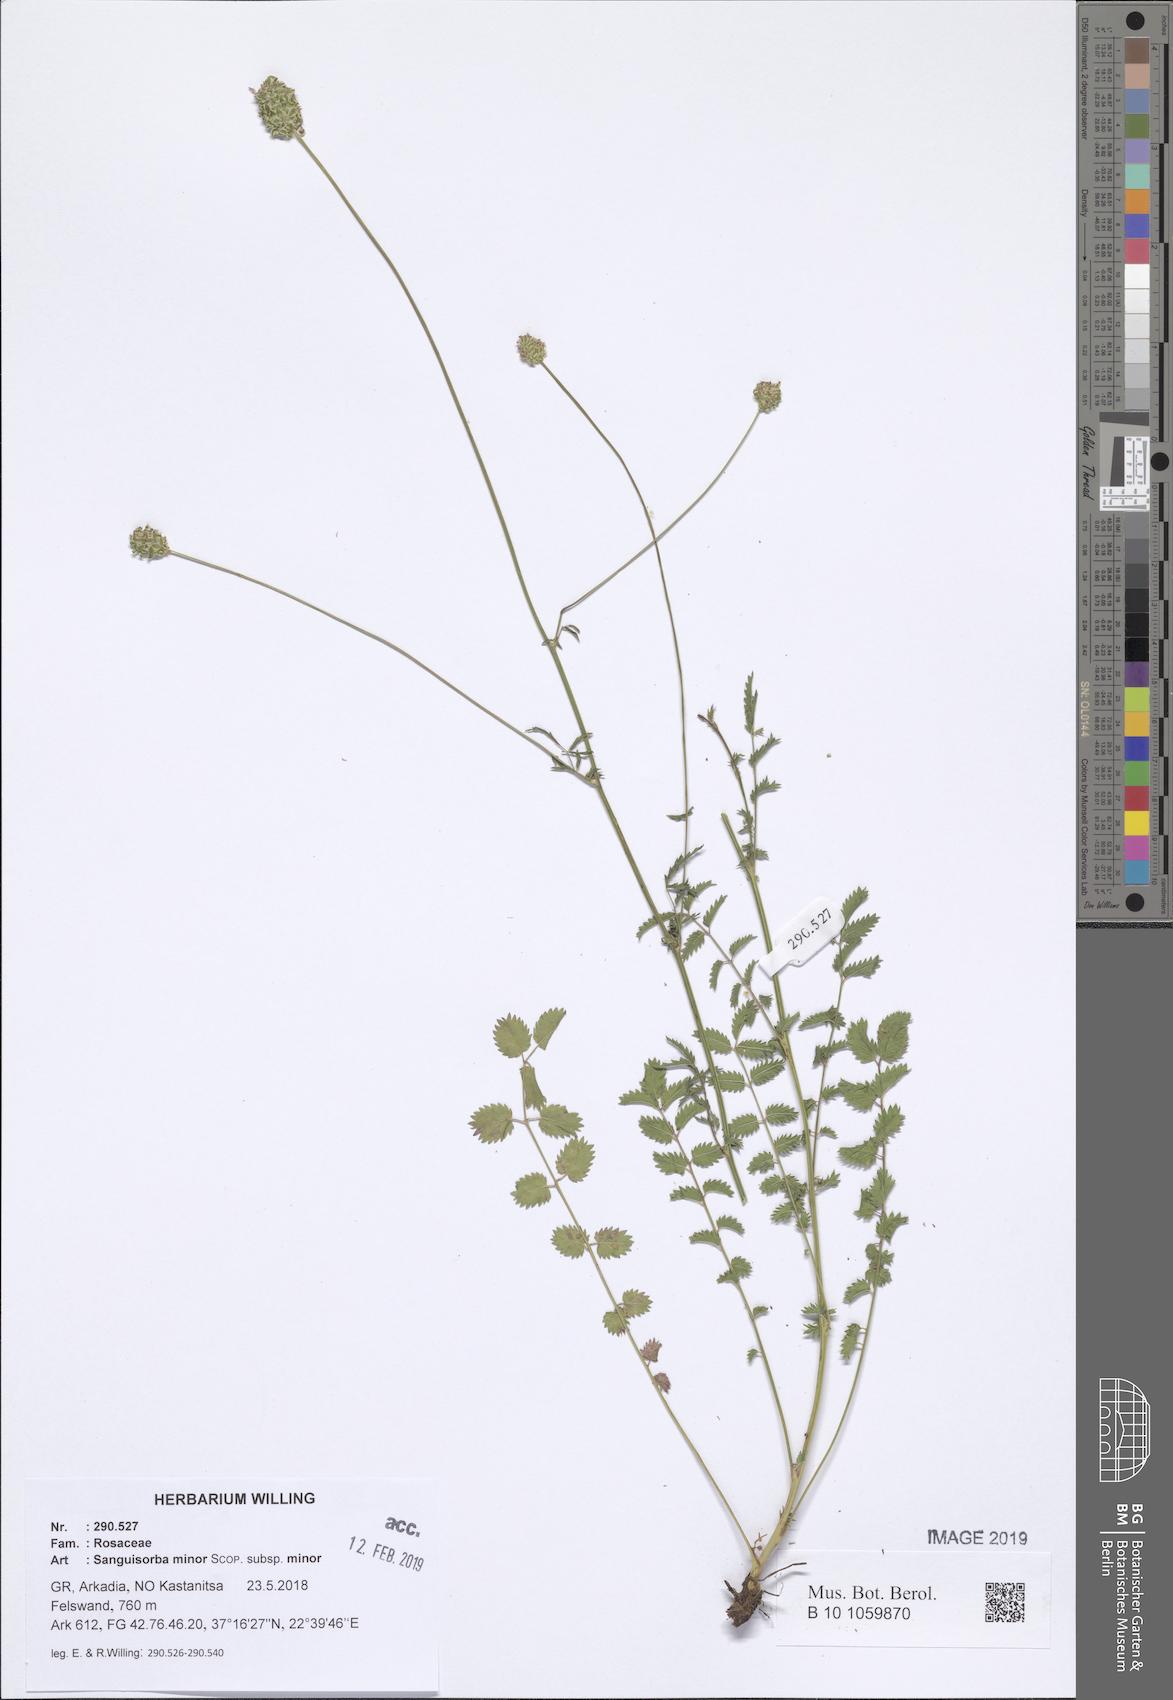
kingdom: Plantae
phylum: Tracheophyta
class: Magnoliopsida
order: Rosales
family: Rosaceae
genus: Poterium
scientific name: Poterium sanguisorba
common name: Salad burnet
